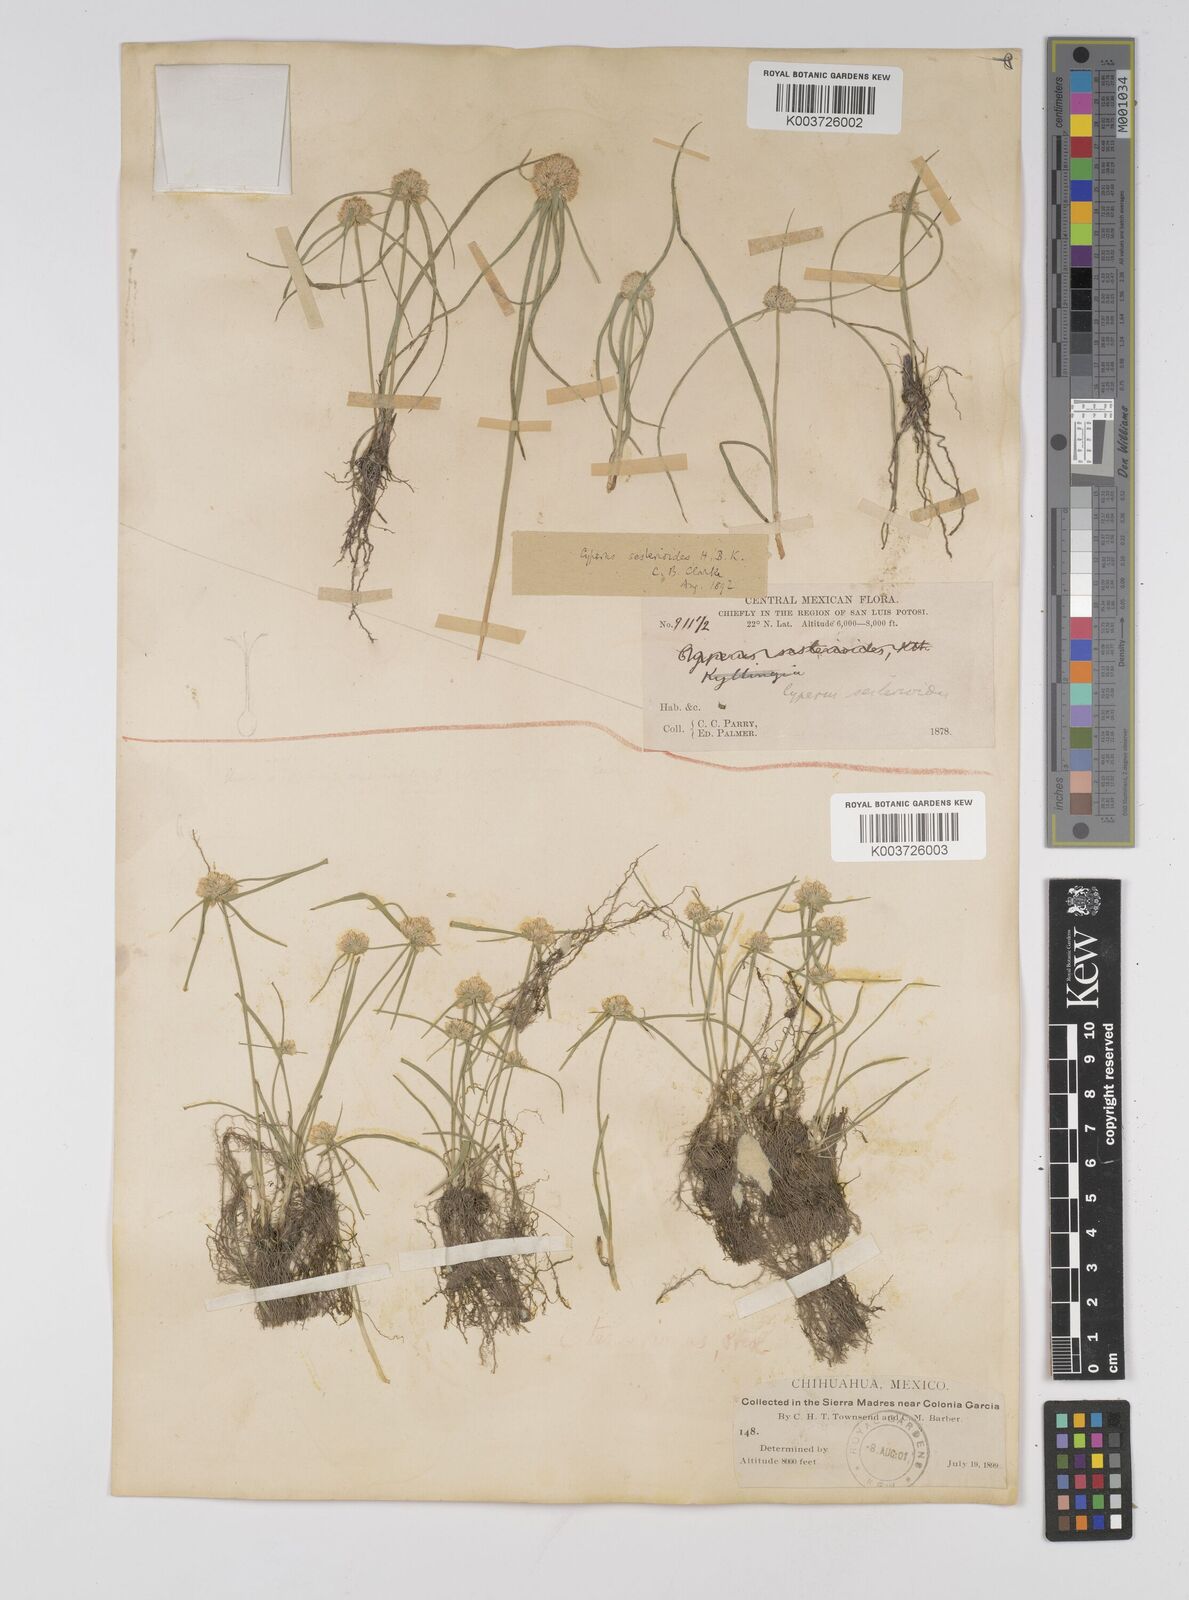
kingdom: Plantae
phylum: Tracheophyta
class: Liliopsida
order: Poales
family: Cyperaceae
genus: Cyperus
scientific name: Cyperus seslerioides
